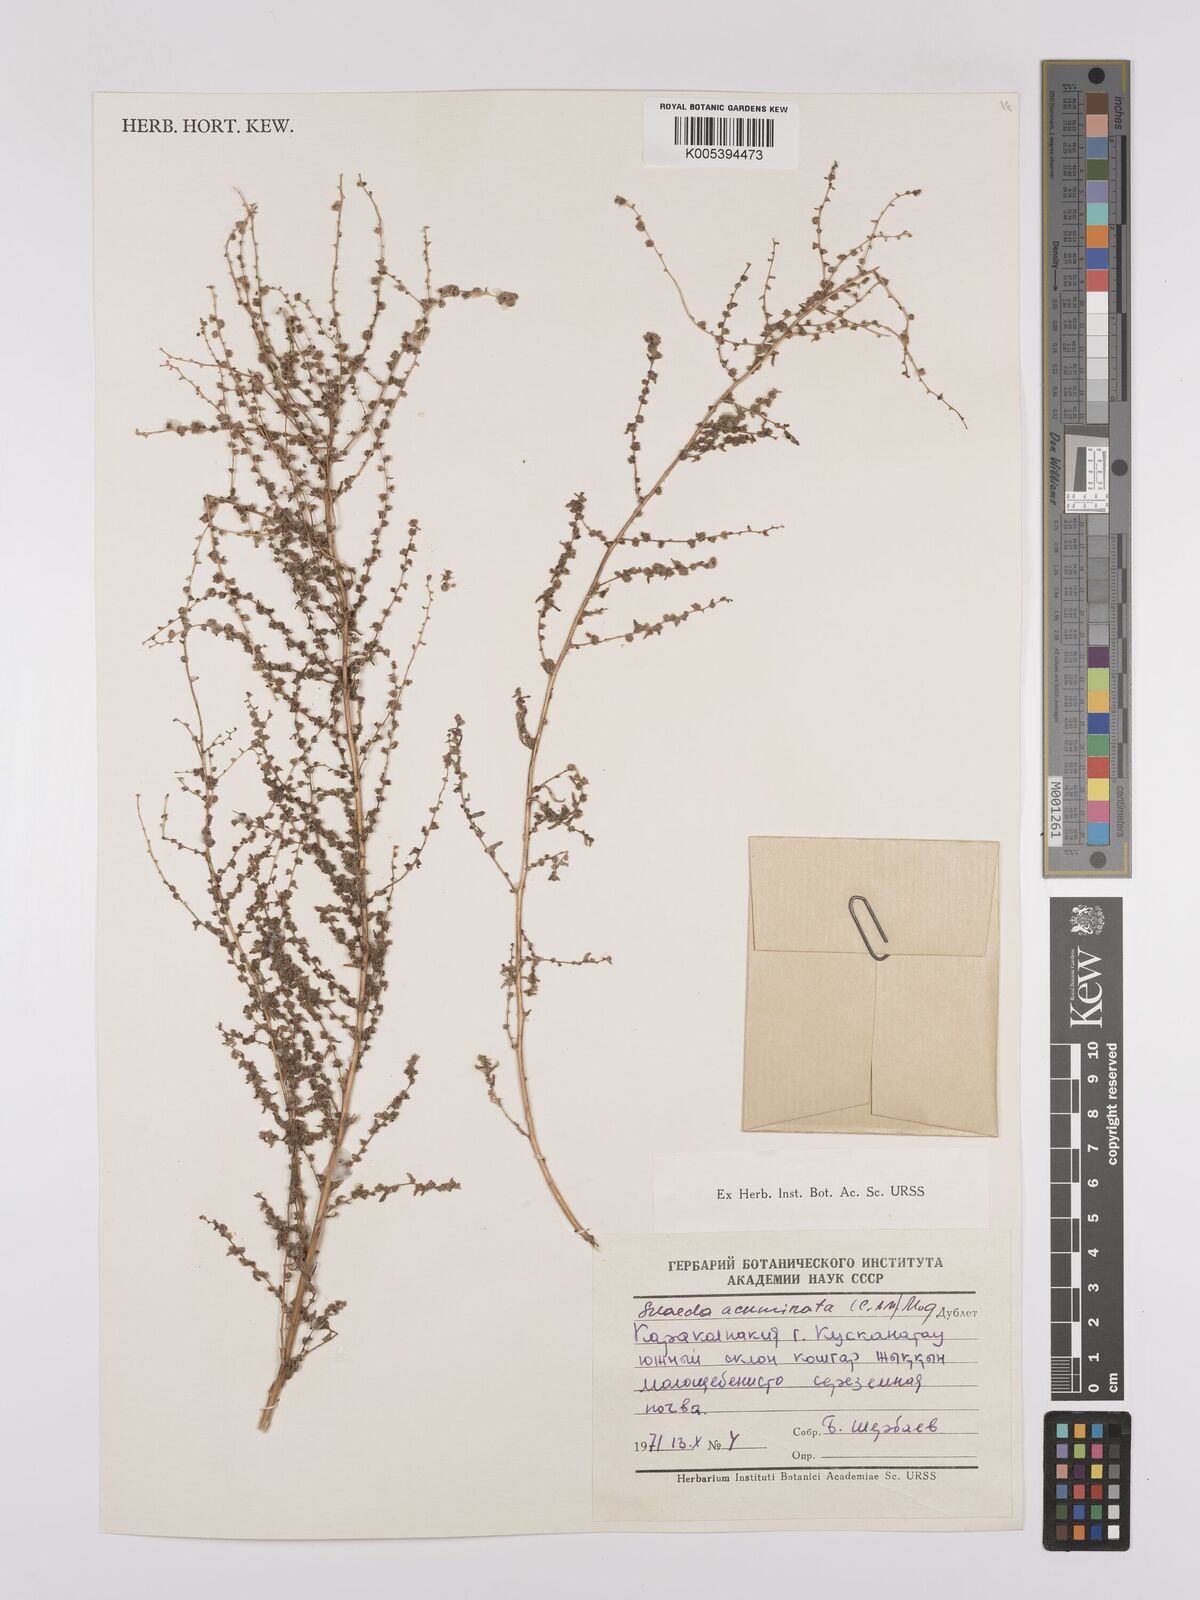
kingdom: Plantae
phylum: Tracheophyta
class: Magnoliopsida
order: Caryophyllales
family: Amaranthaceae
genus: Suaeda
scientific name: Suaeda acuminata
